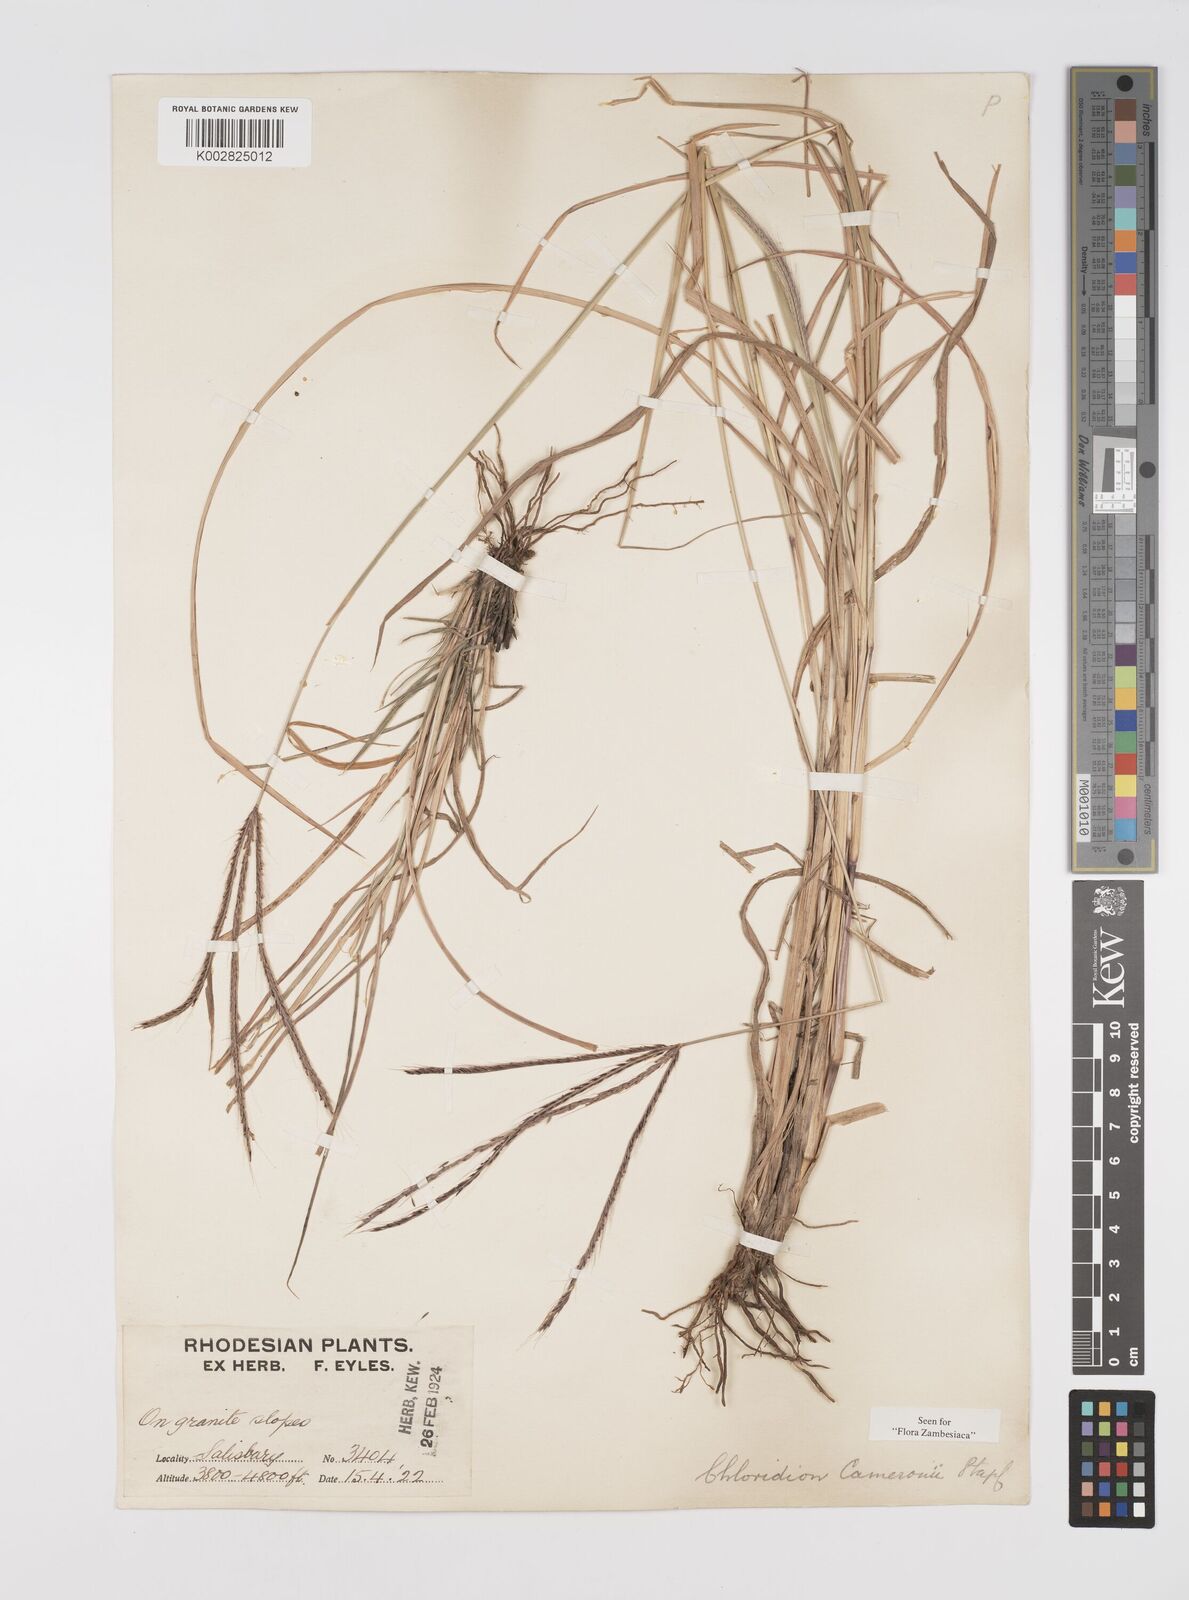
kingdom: Plantae
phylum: Tracheophyta
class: Liliopsida
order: Poales
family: Poaceae
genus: Stereochlaena
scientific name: Stereochlaena cameronii
